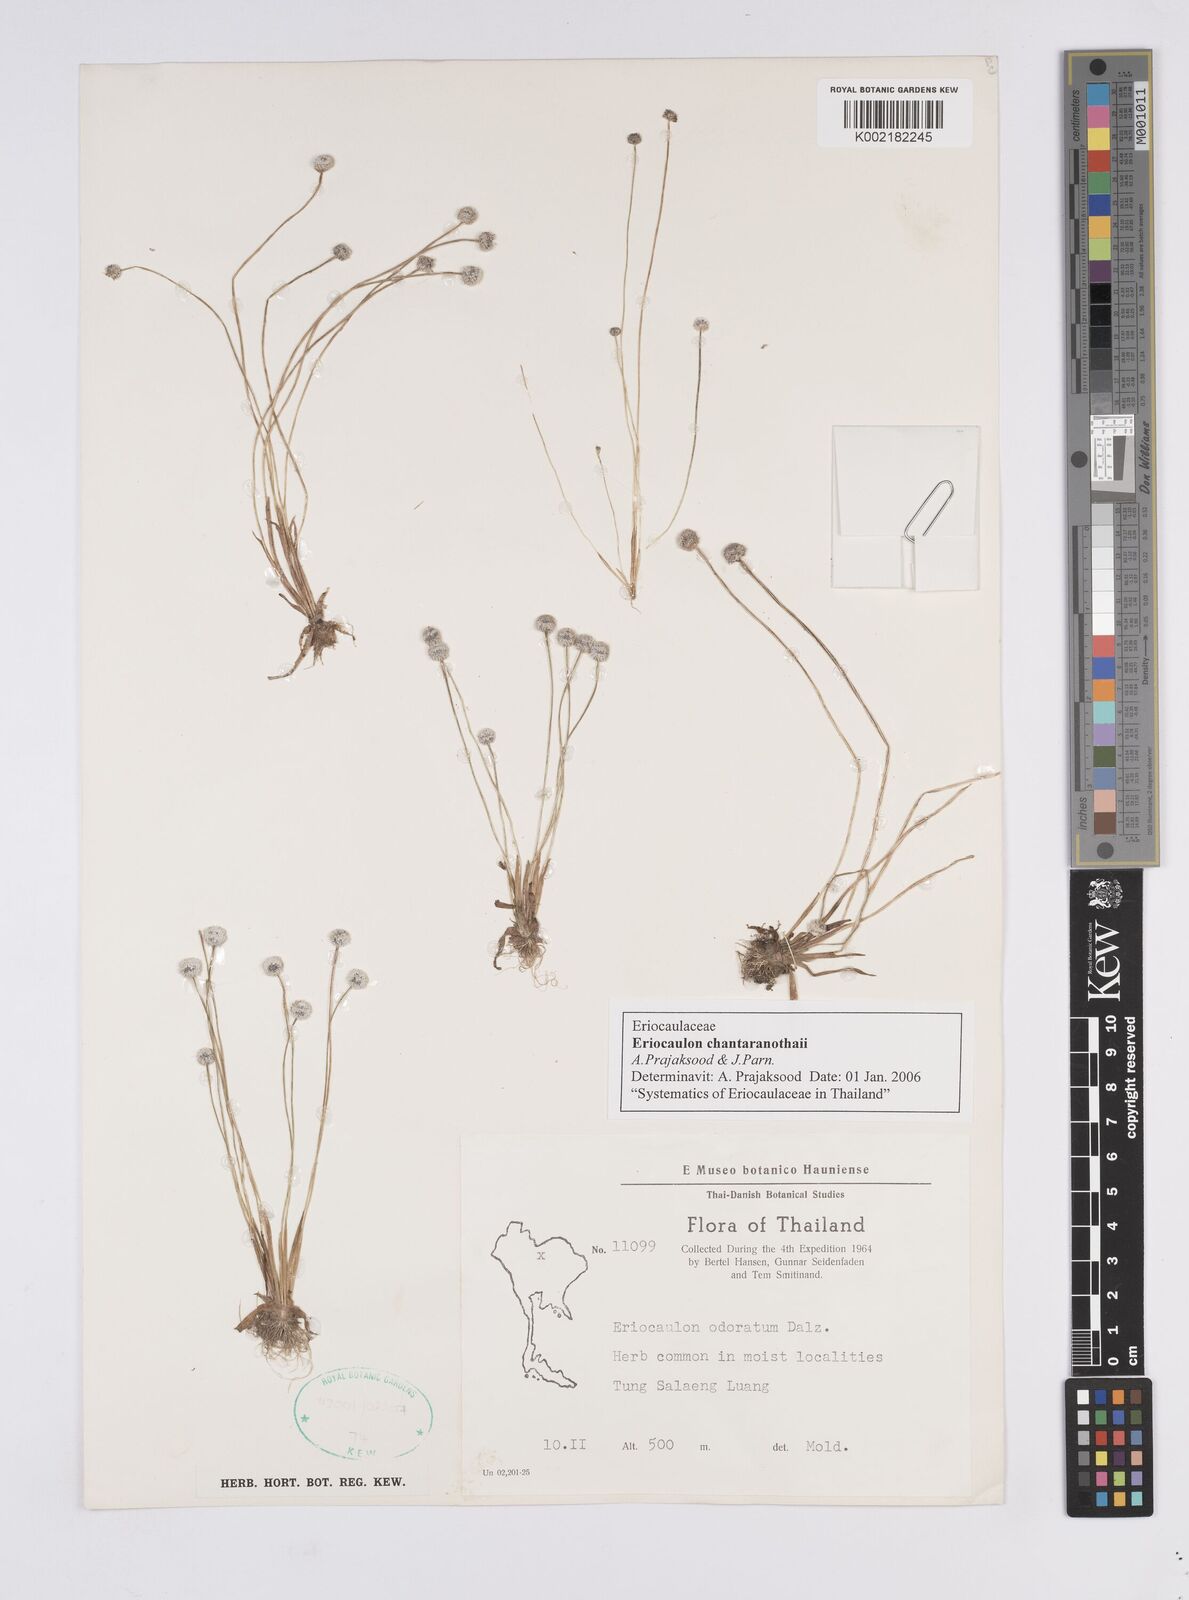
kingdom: Plantae
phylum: Tracheophyta
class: Liliopsida
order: Poales
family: Eriocaulaceae
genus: Eriocaulon
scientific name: Eriocaulon chantaranothaii
